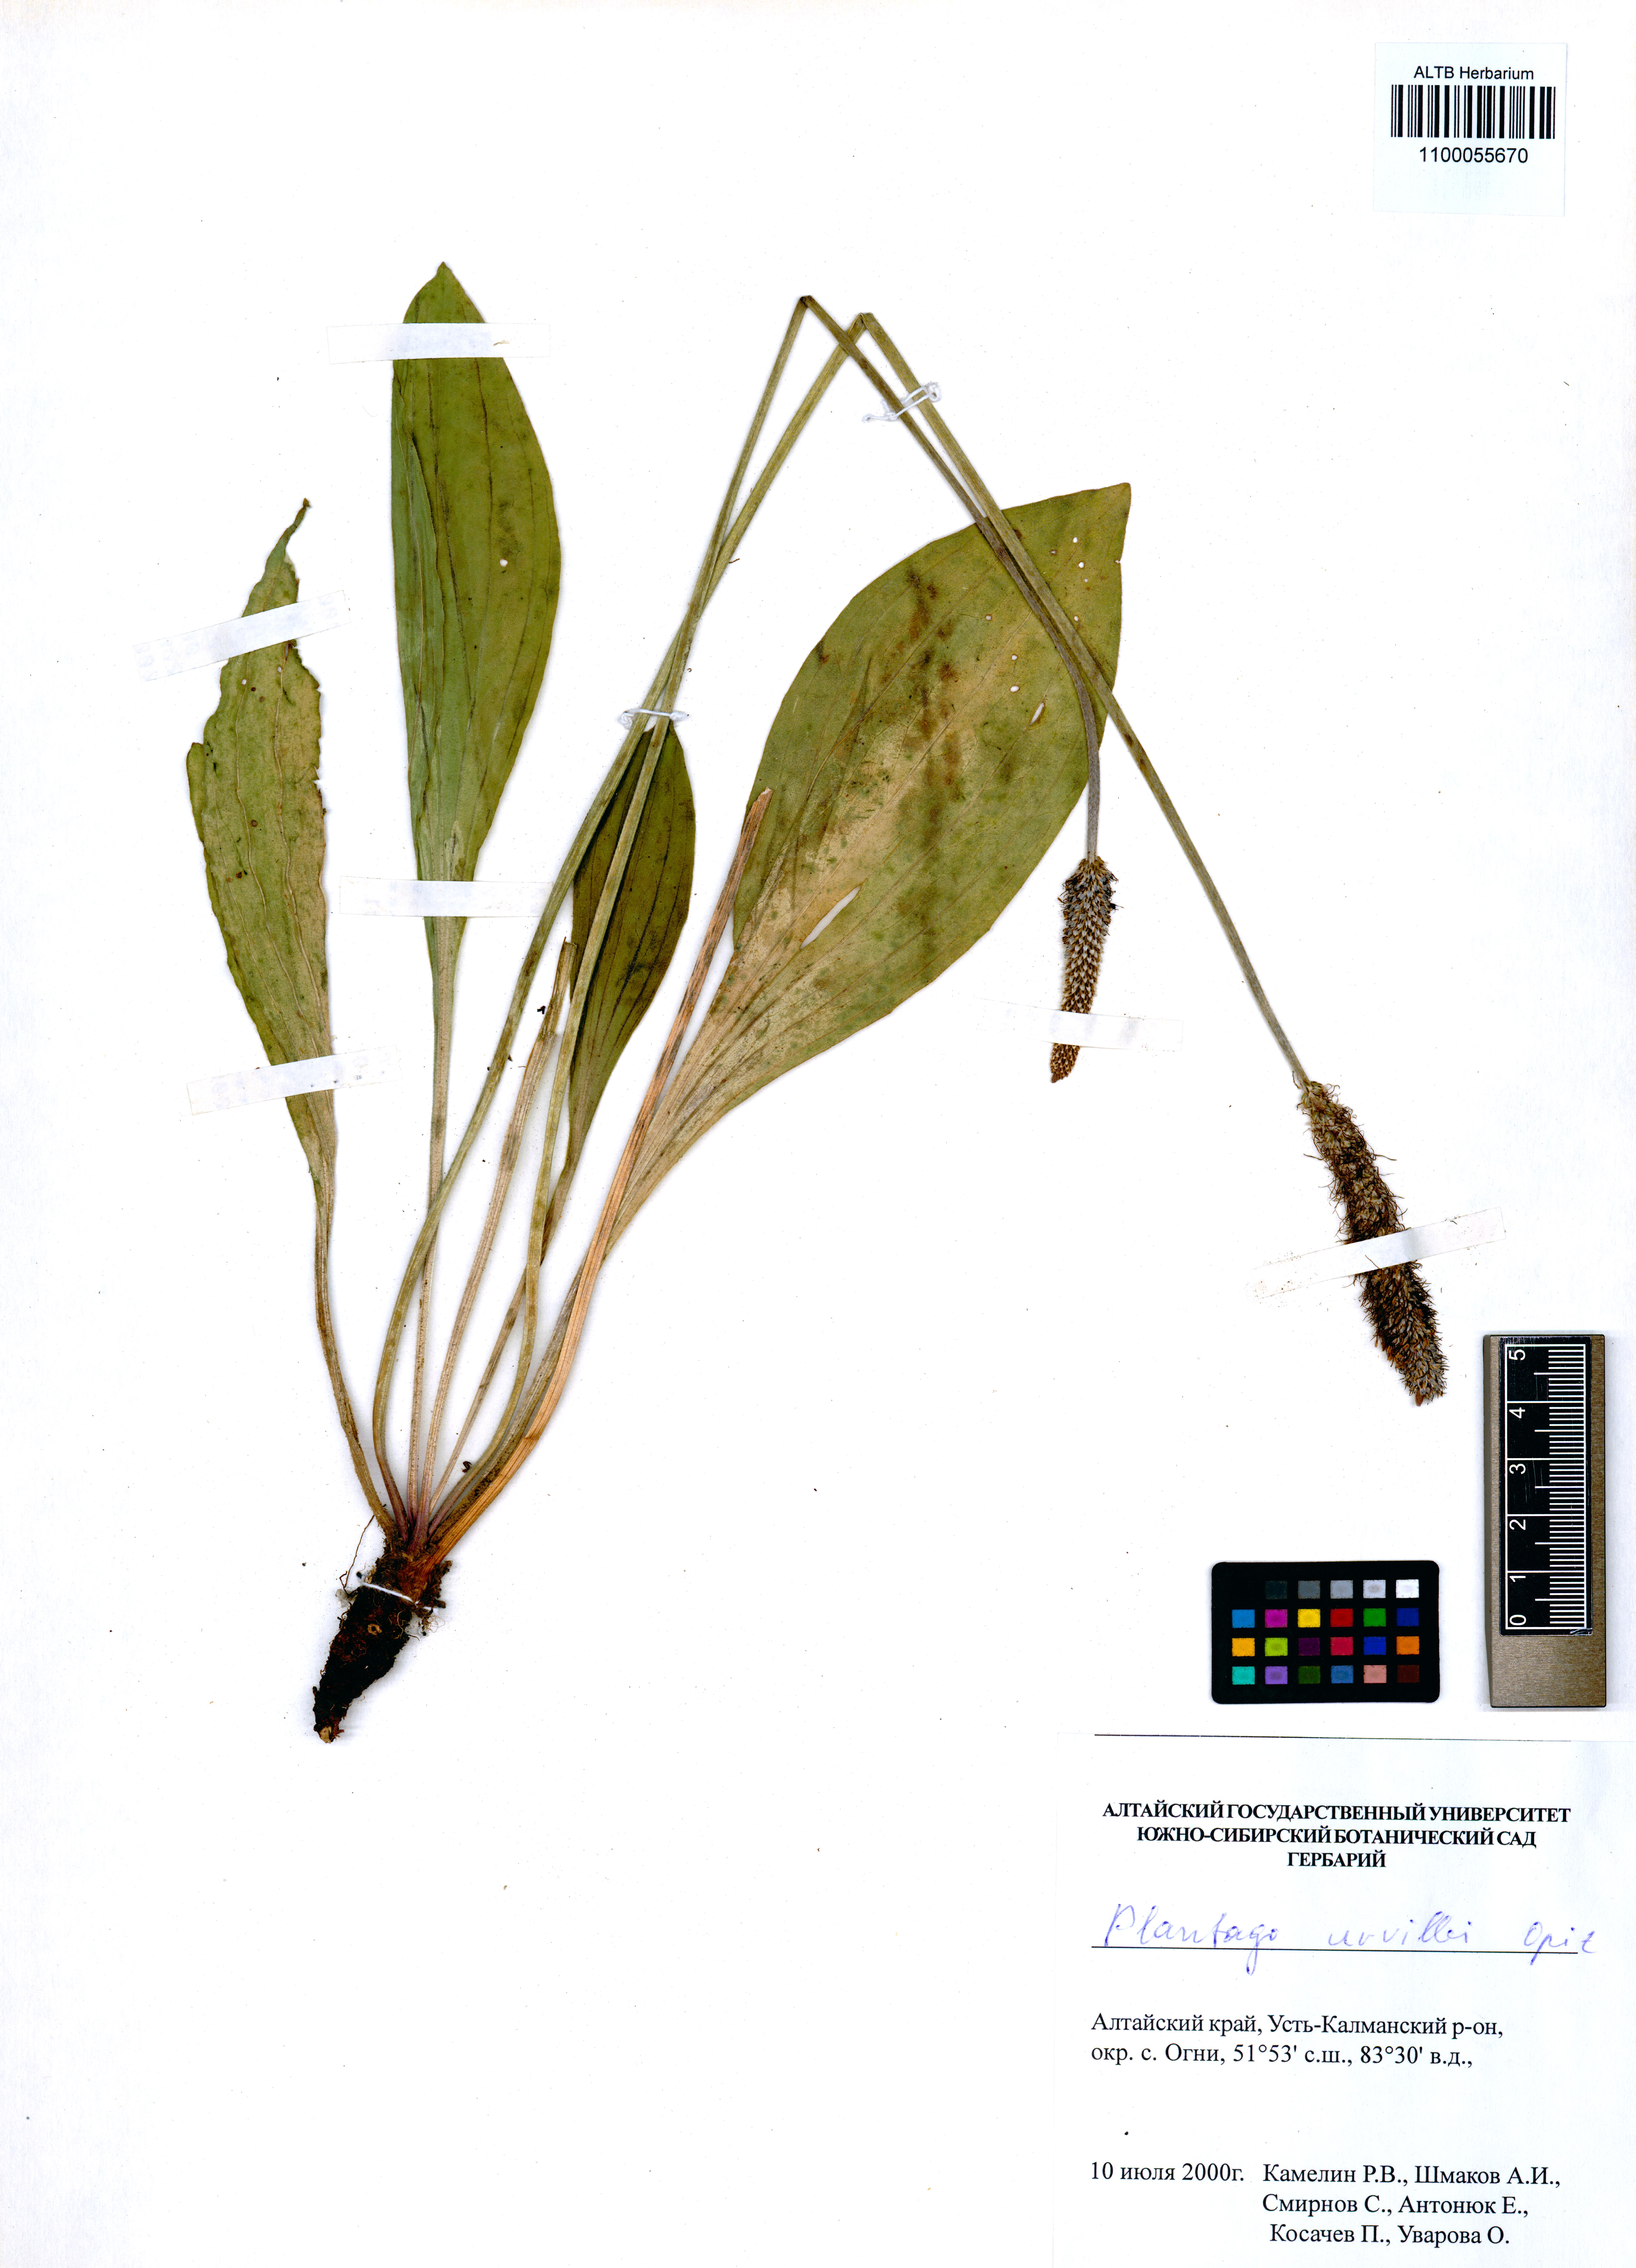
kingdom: Plantae
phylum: Tracheophyta
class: Magnoliopsida
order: Lamiales
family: Plantaginaceae
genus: Plantago
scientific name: Plantago urvillei
